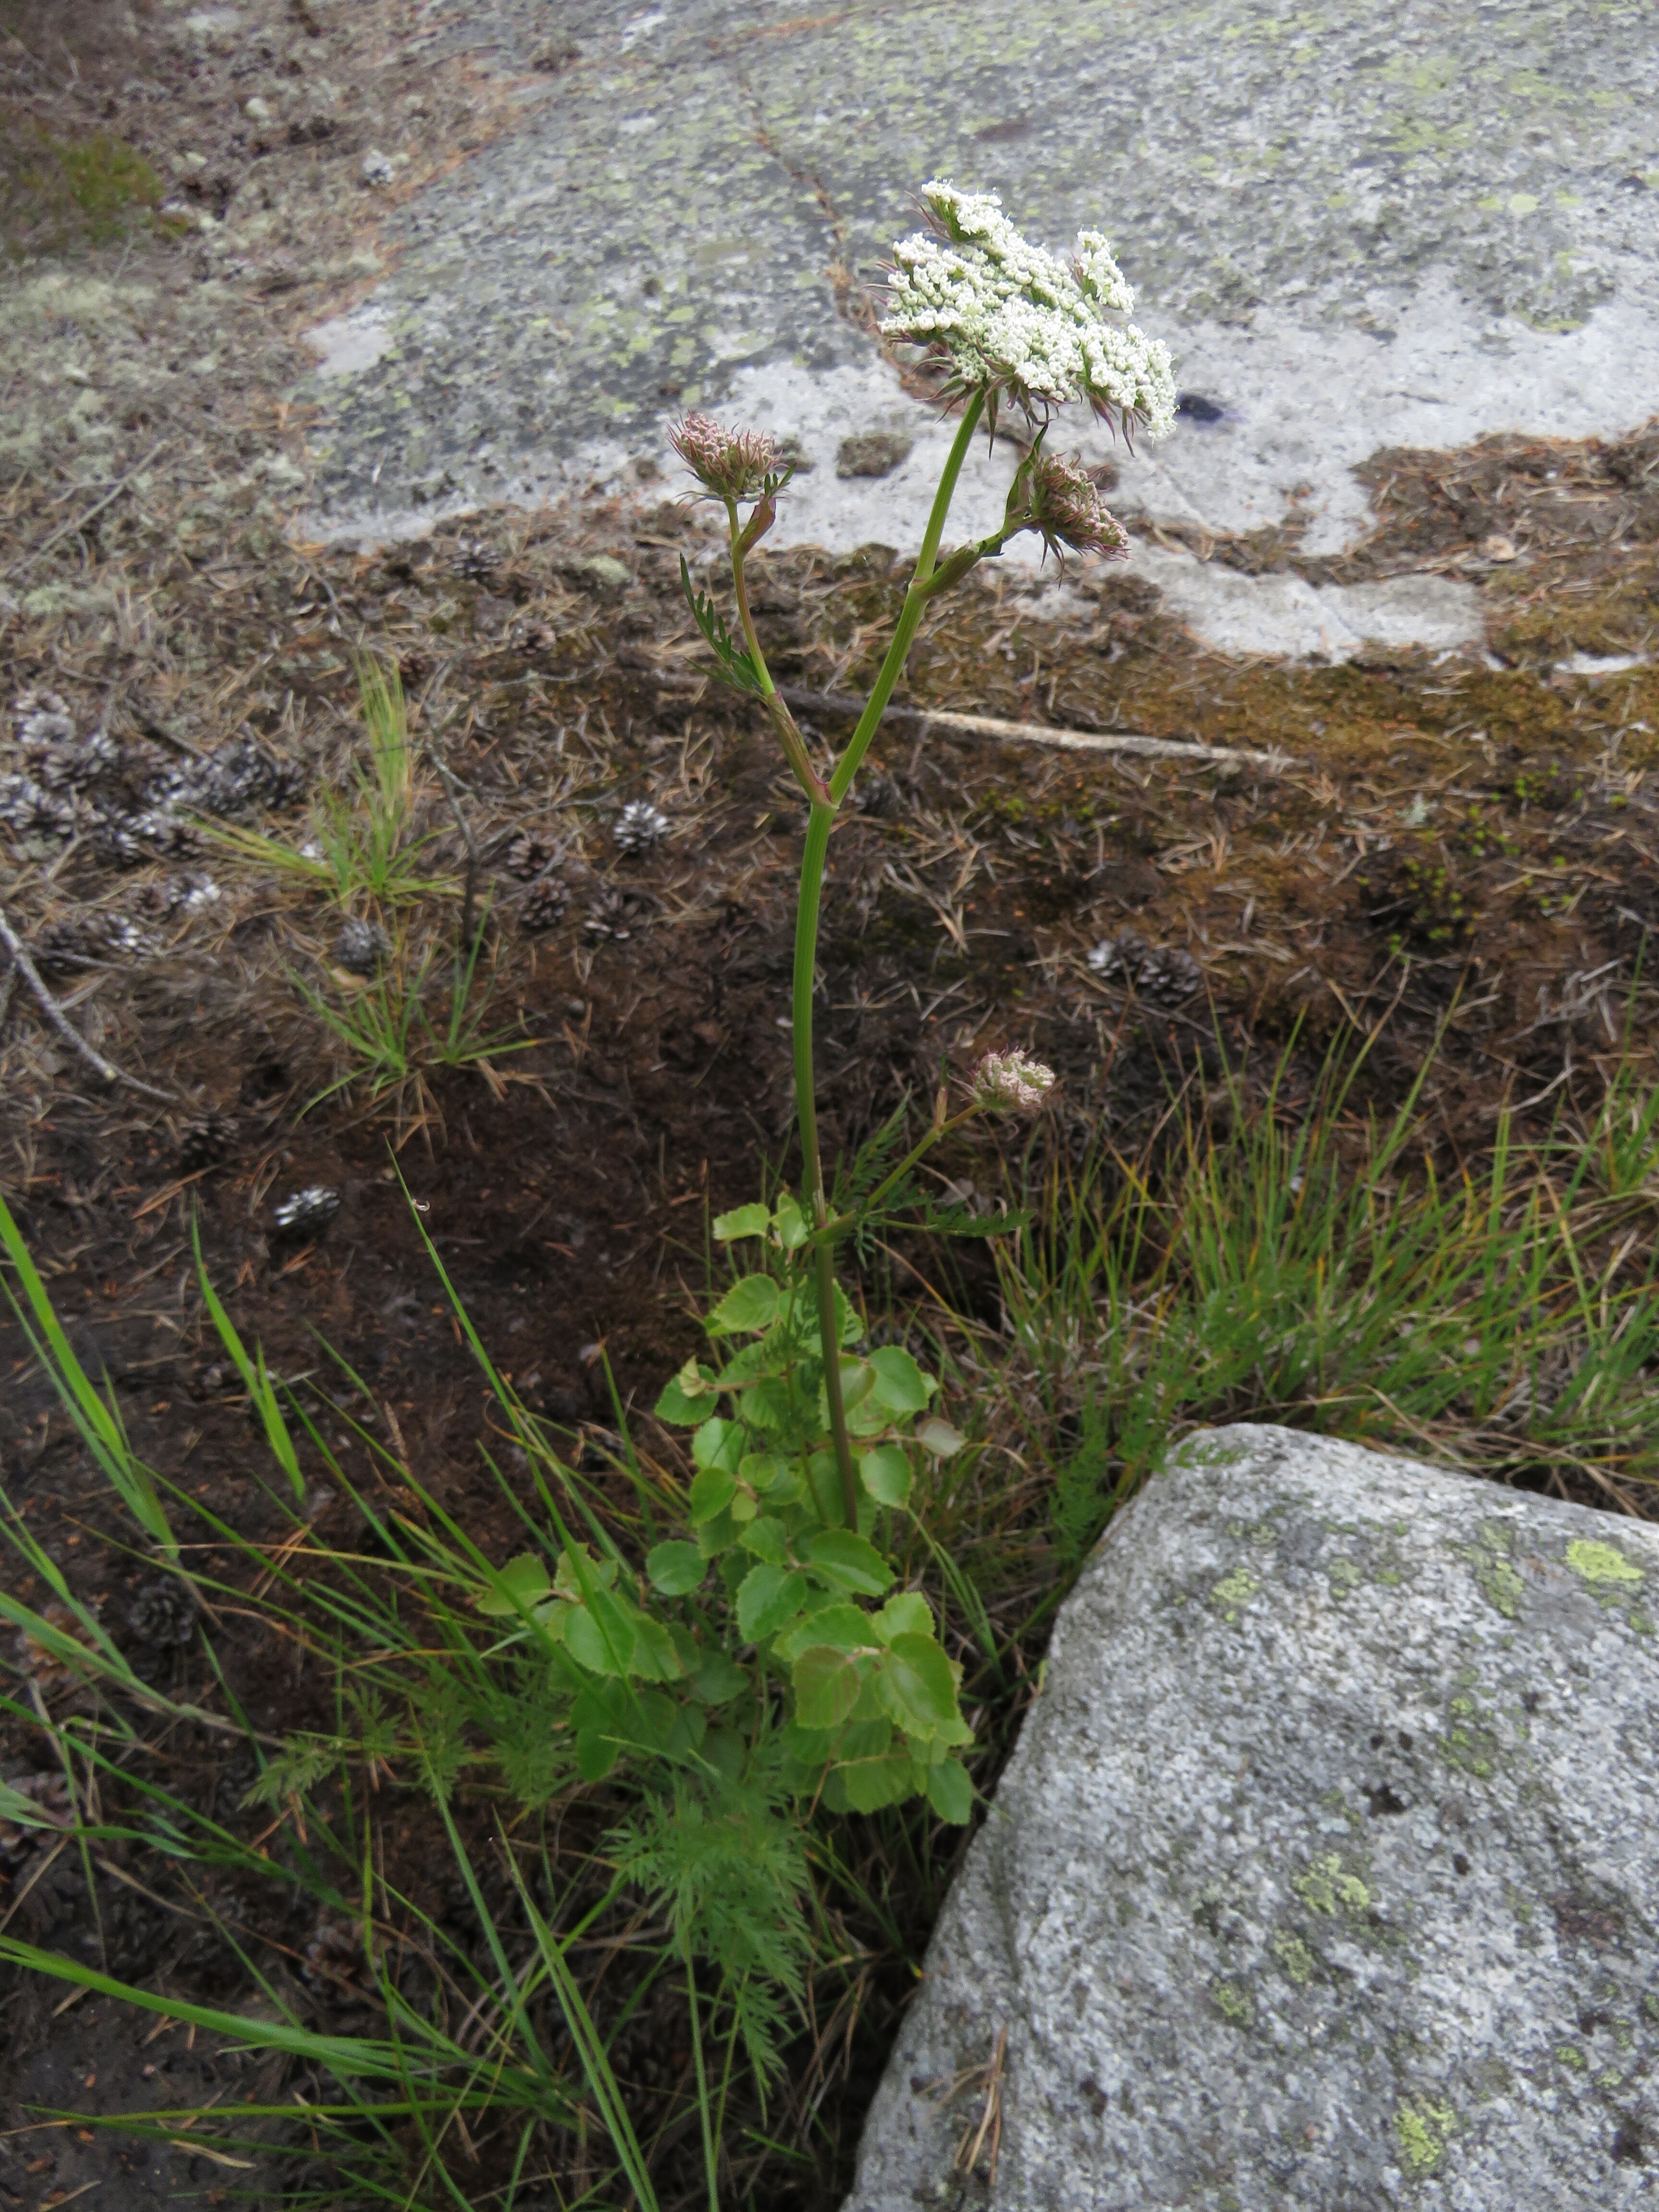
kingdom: Plantae
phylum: Tracheophyta
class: Magnoliopsida
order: Apiales
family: Apiaceae
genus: Peucedanum
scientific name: Peucedanum
